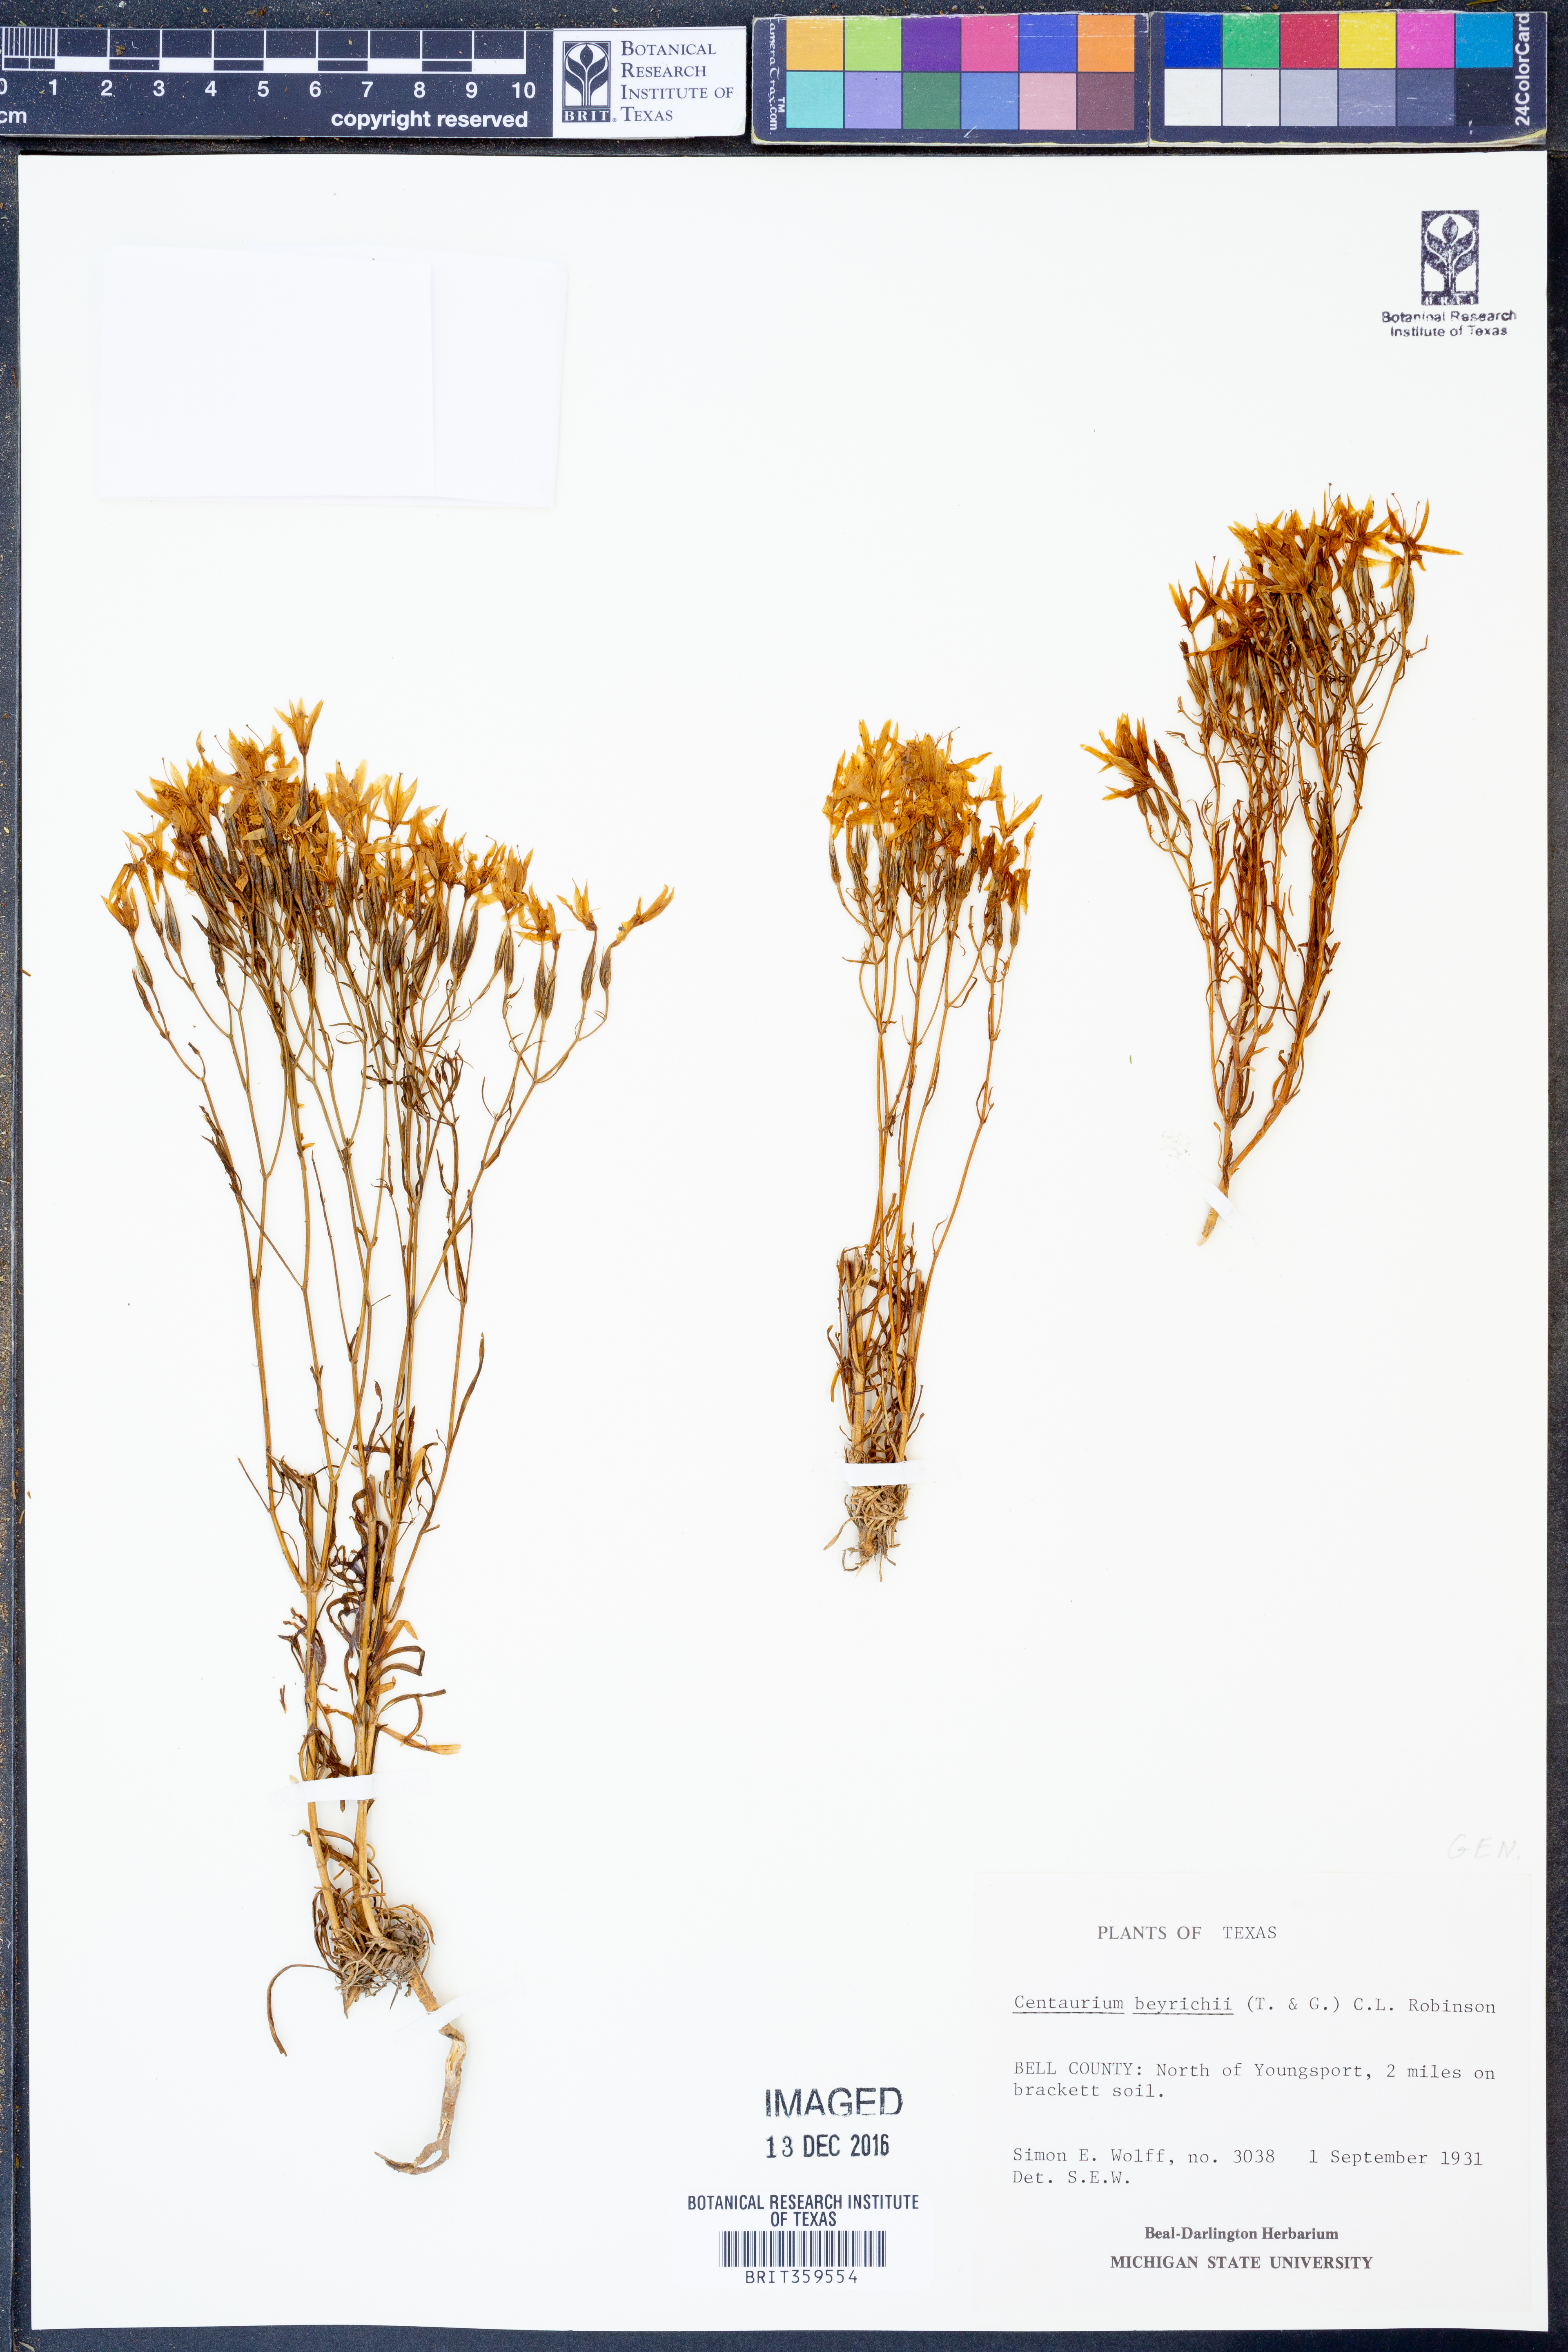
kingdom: Plantae
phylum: Tracheophyta
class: Magnoliopsida
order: Gentianales
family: Gentianaceae
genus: Zeltnera
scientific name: Zeltnera beyrichii
